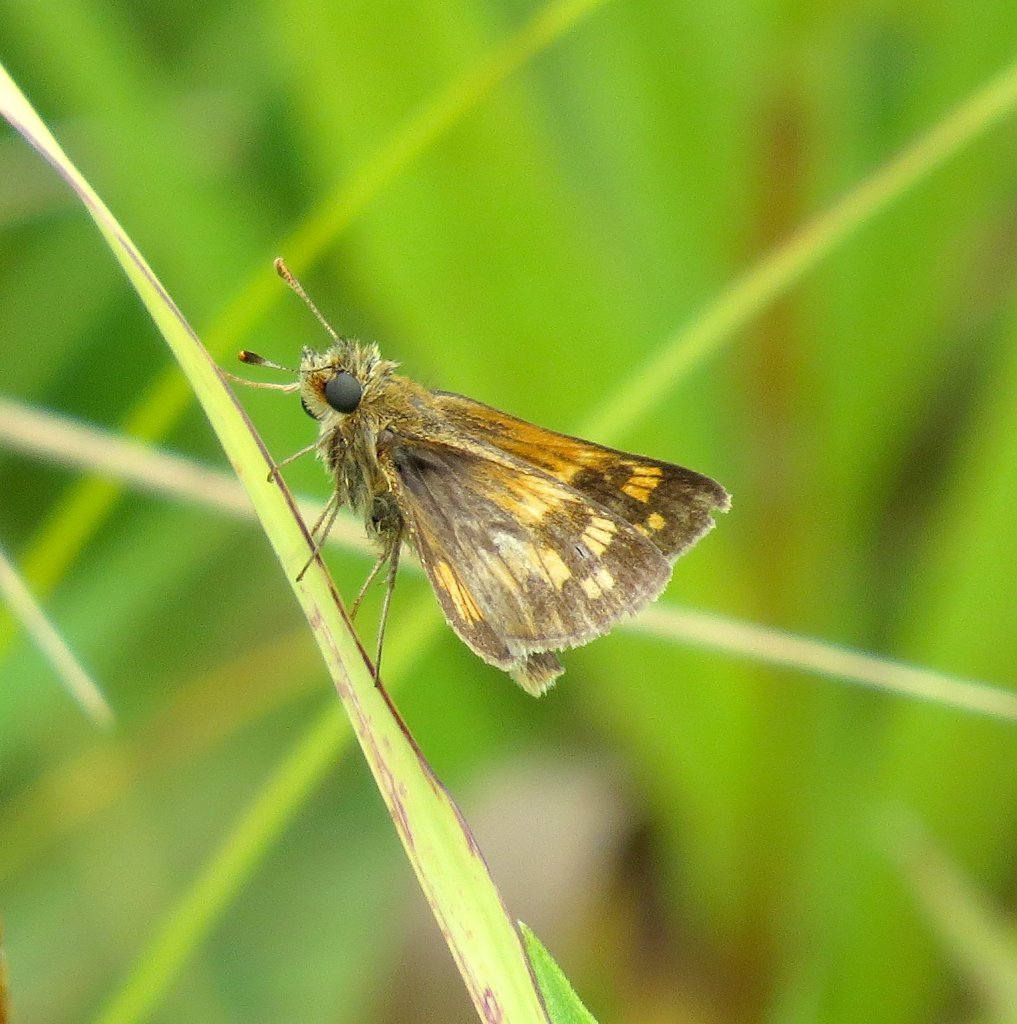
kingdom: Animalia
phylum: Arthropoda
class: Insecta
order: Lepidoptera
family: Hesperiidae
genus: Polites
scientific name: Polites
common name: Long Dash Skipper
